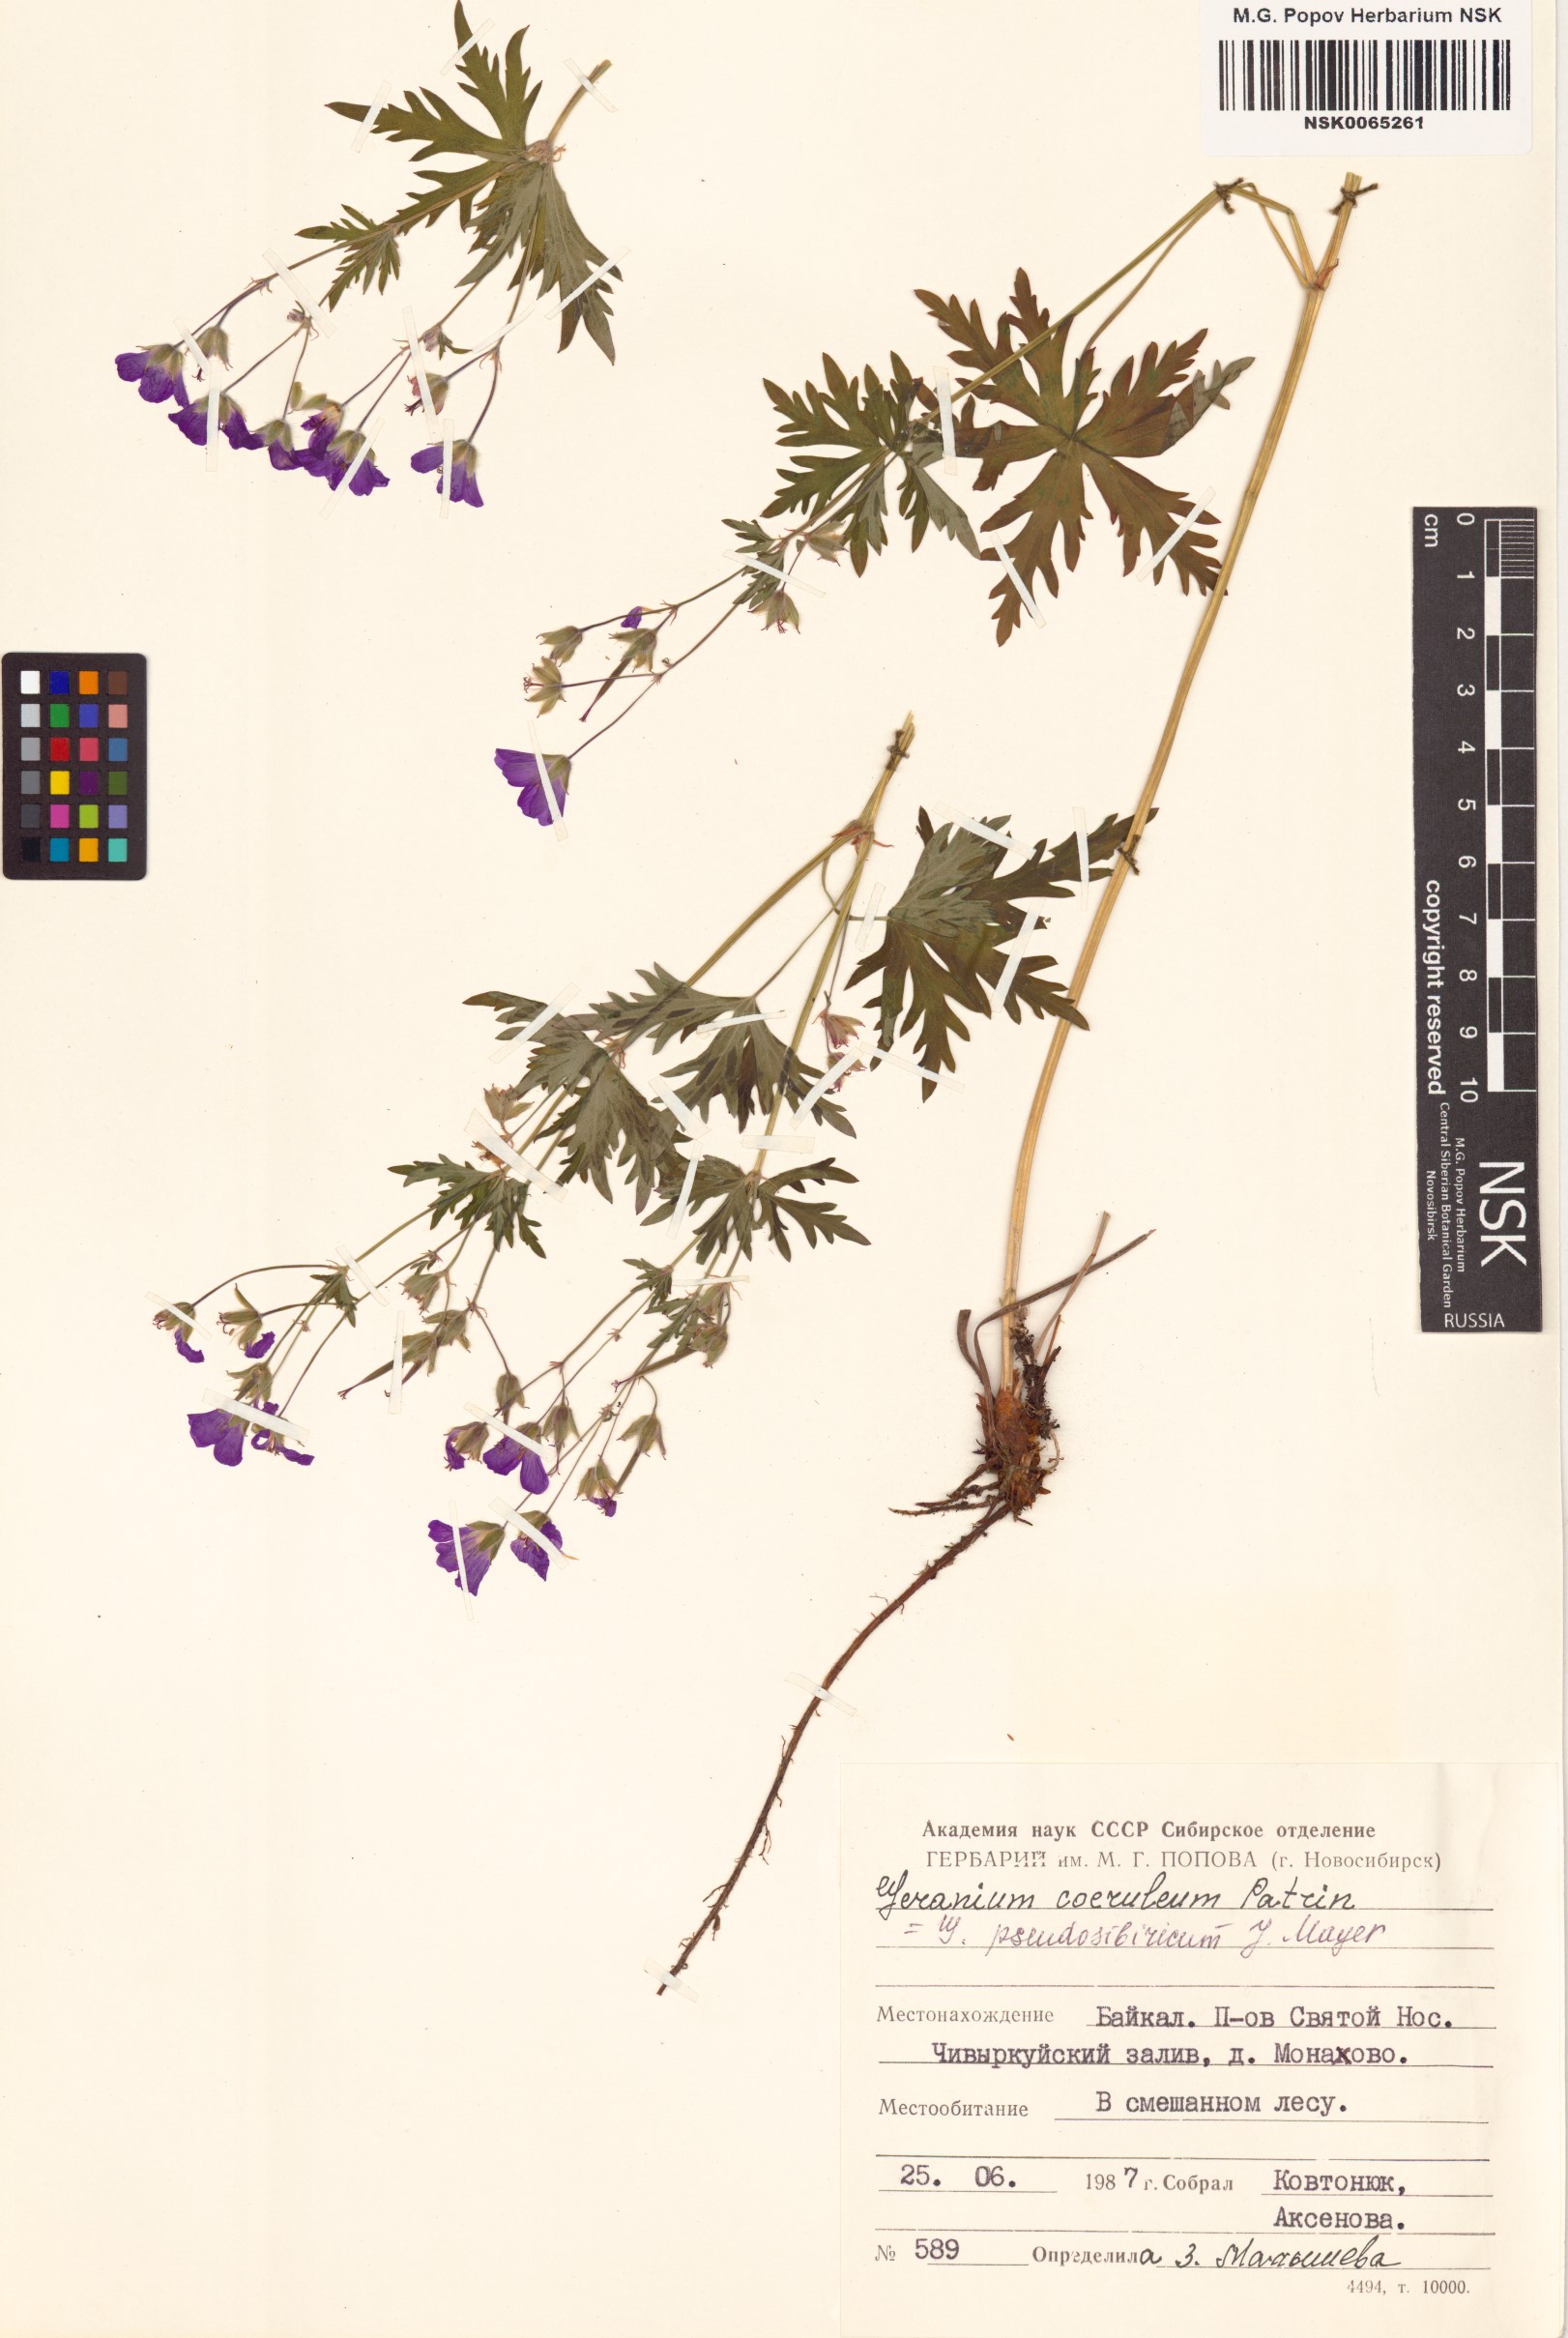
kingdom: Plantae
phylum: Tracheophyta
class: Magnoliopsida
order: Geraniales
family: Geraniaceae
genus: Geranium
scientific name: Geranium pseudosibiricum
